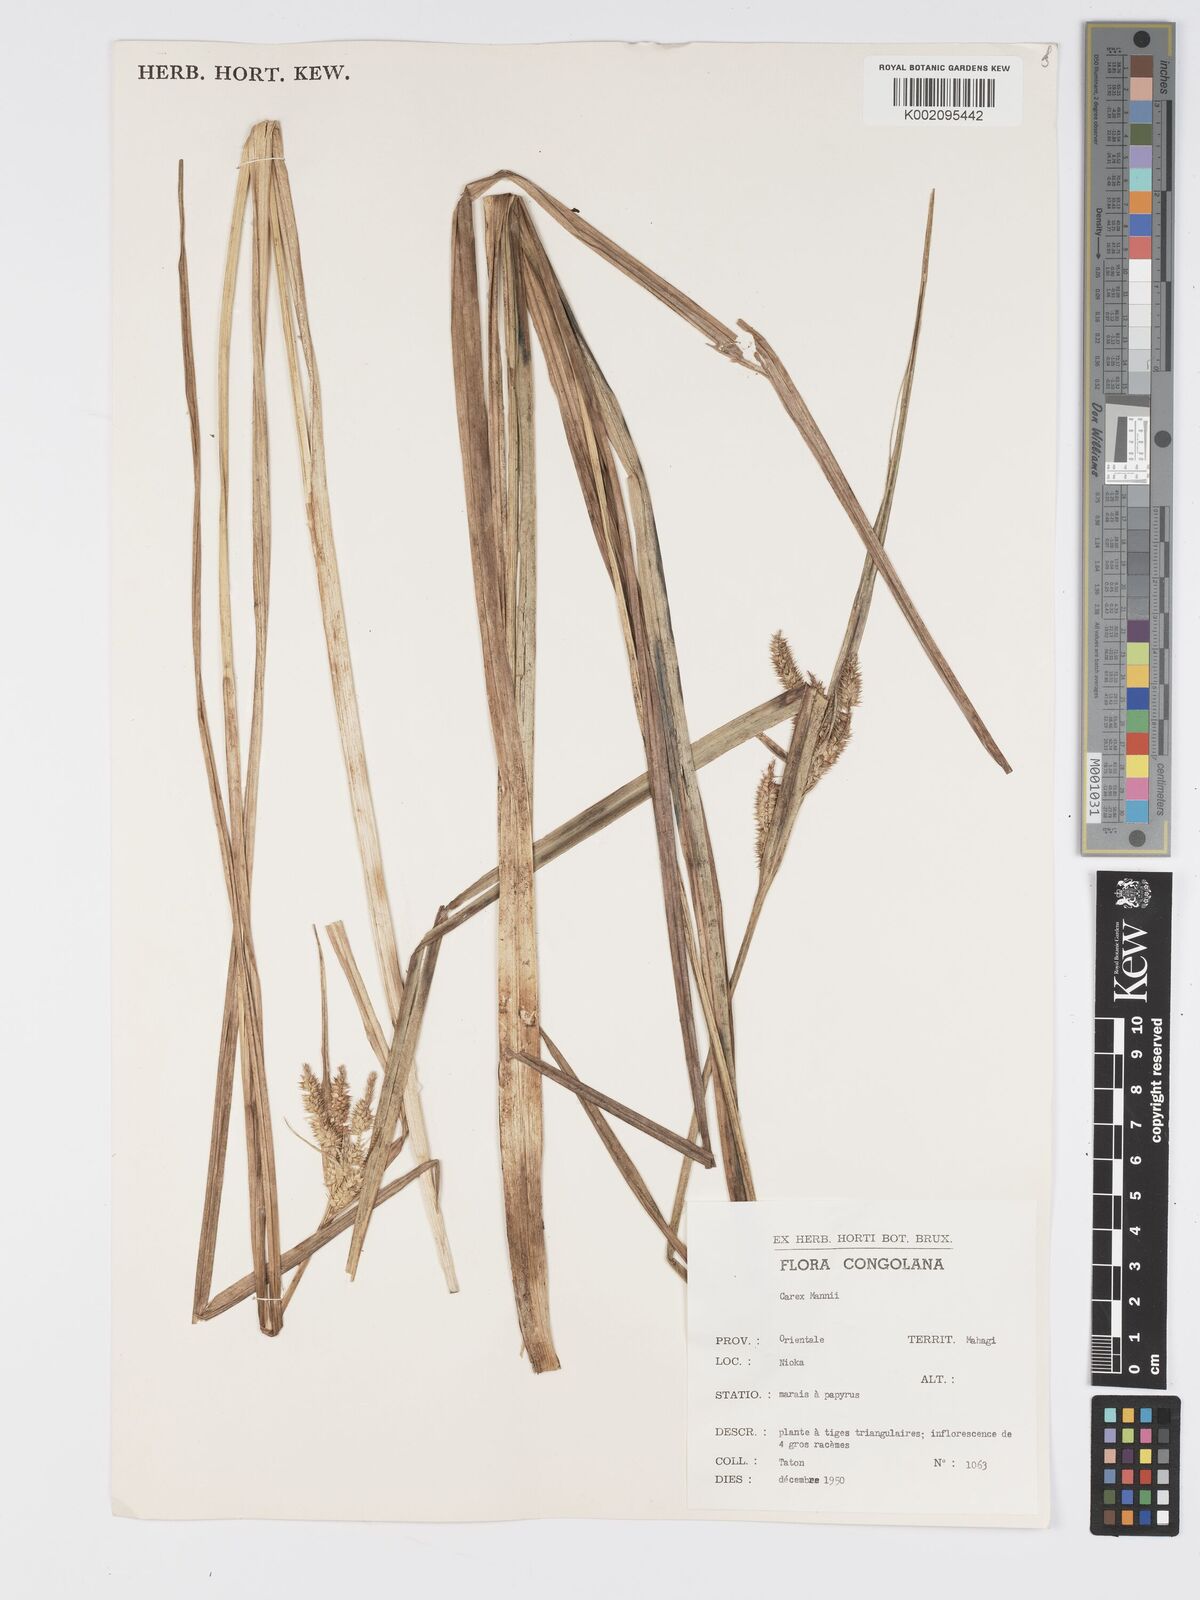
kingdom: Plantae
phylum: Tracheophyta
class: Liliopsida
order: Poales
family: Cyperaceae
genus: Carex
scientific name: Carex mannii
